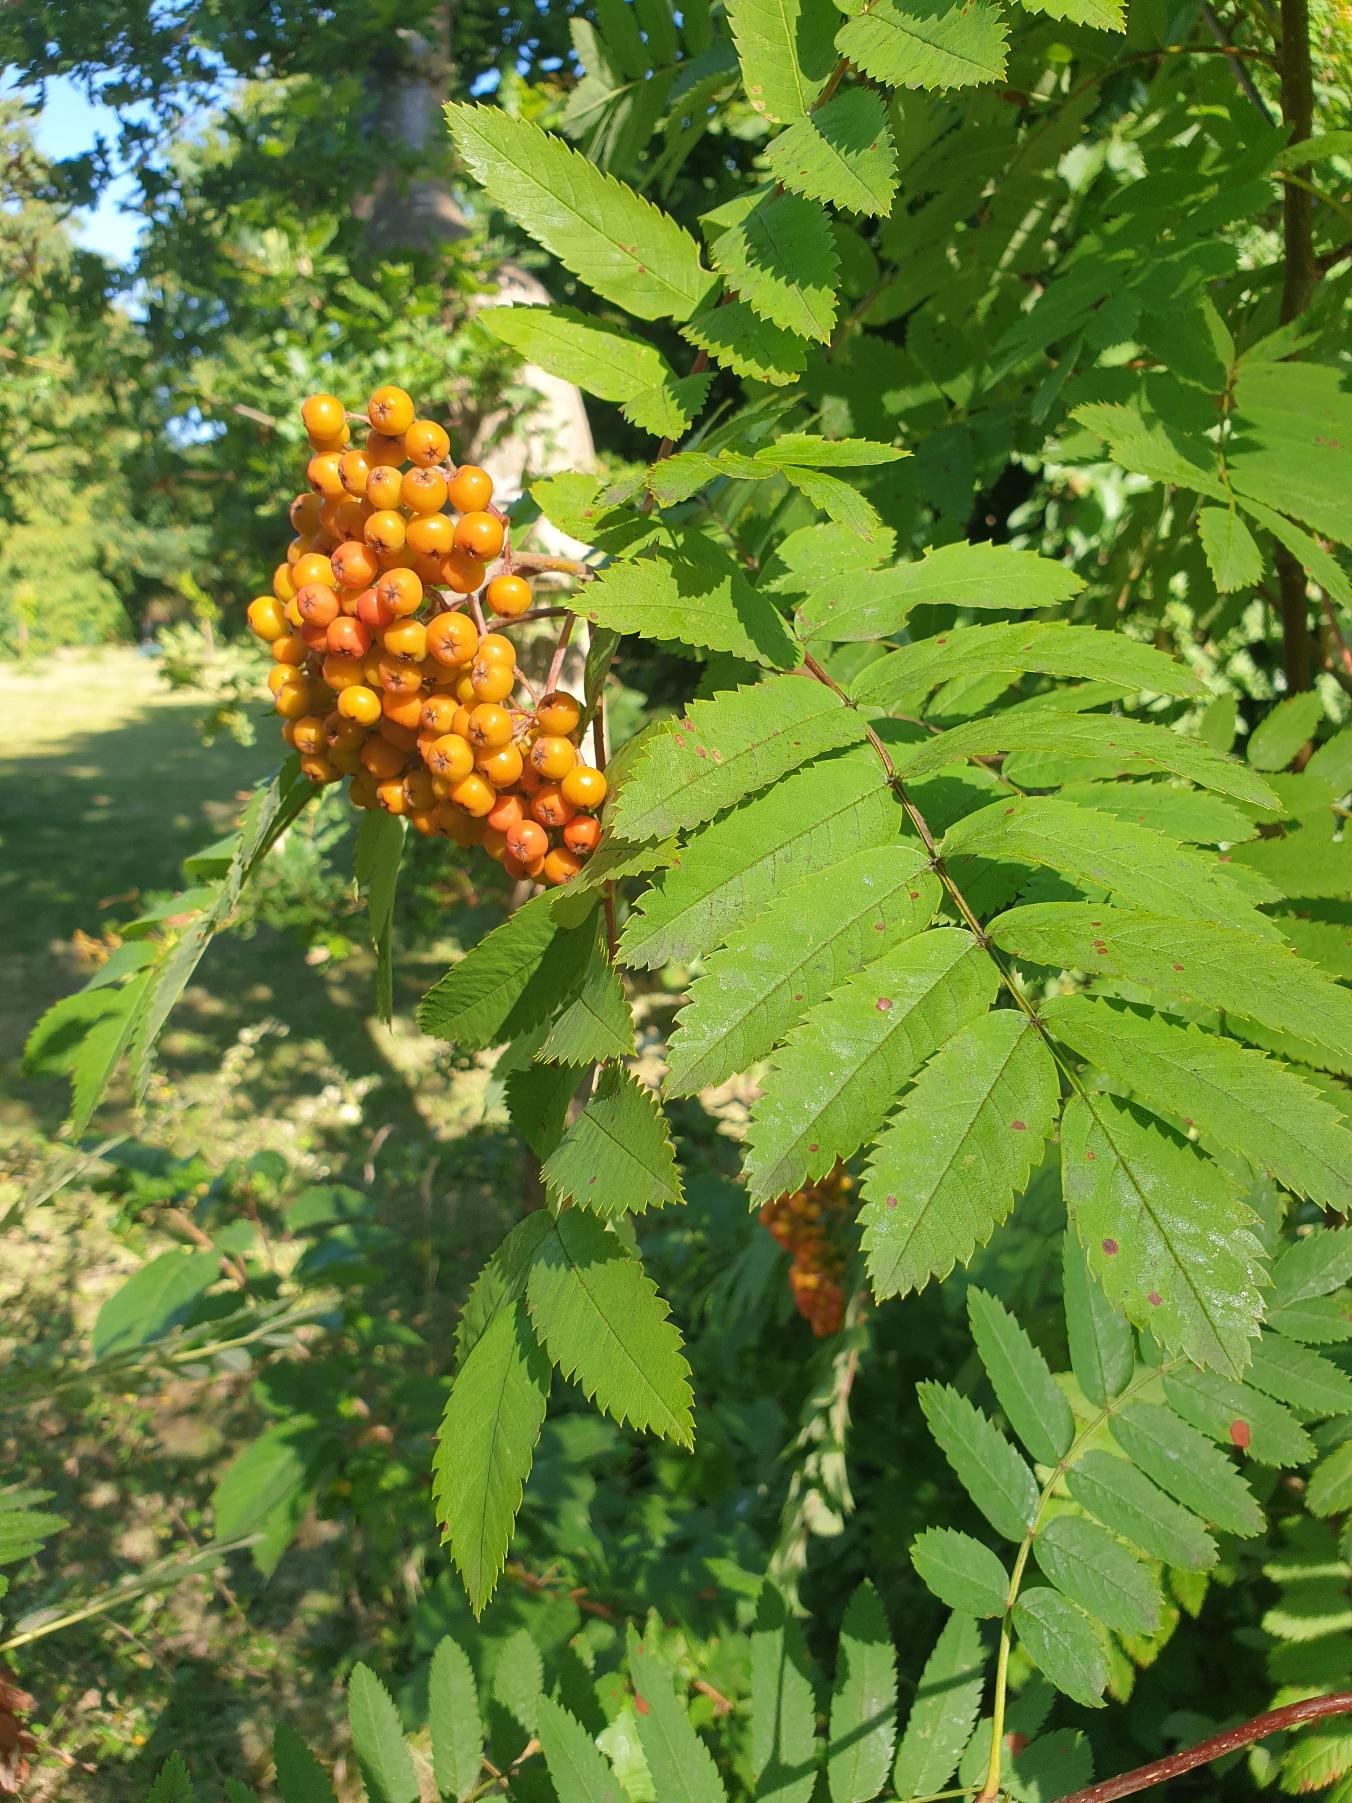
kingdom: Plantae
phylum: Tracheophyta
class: Magnoliopsida
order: Rosales
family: Rosaceae
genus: Sorbus
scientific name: Sorbus aucuparia
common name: Almindelig røn
